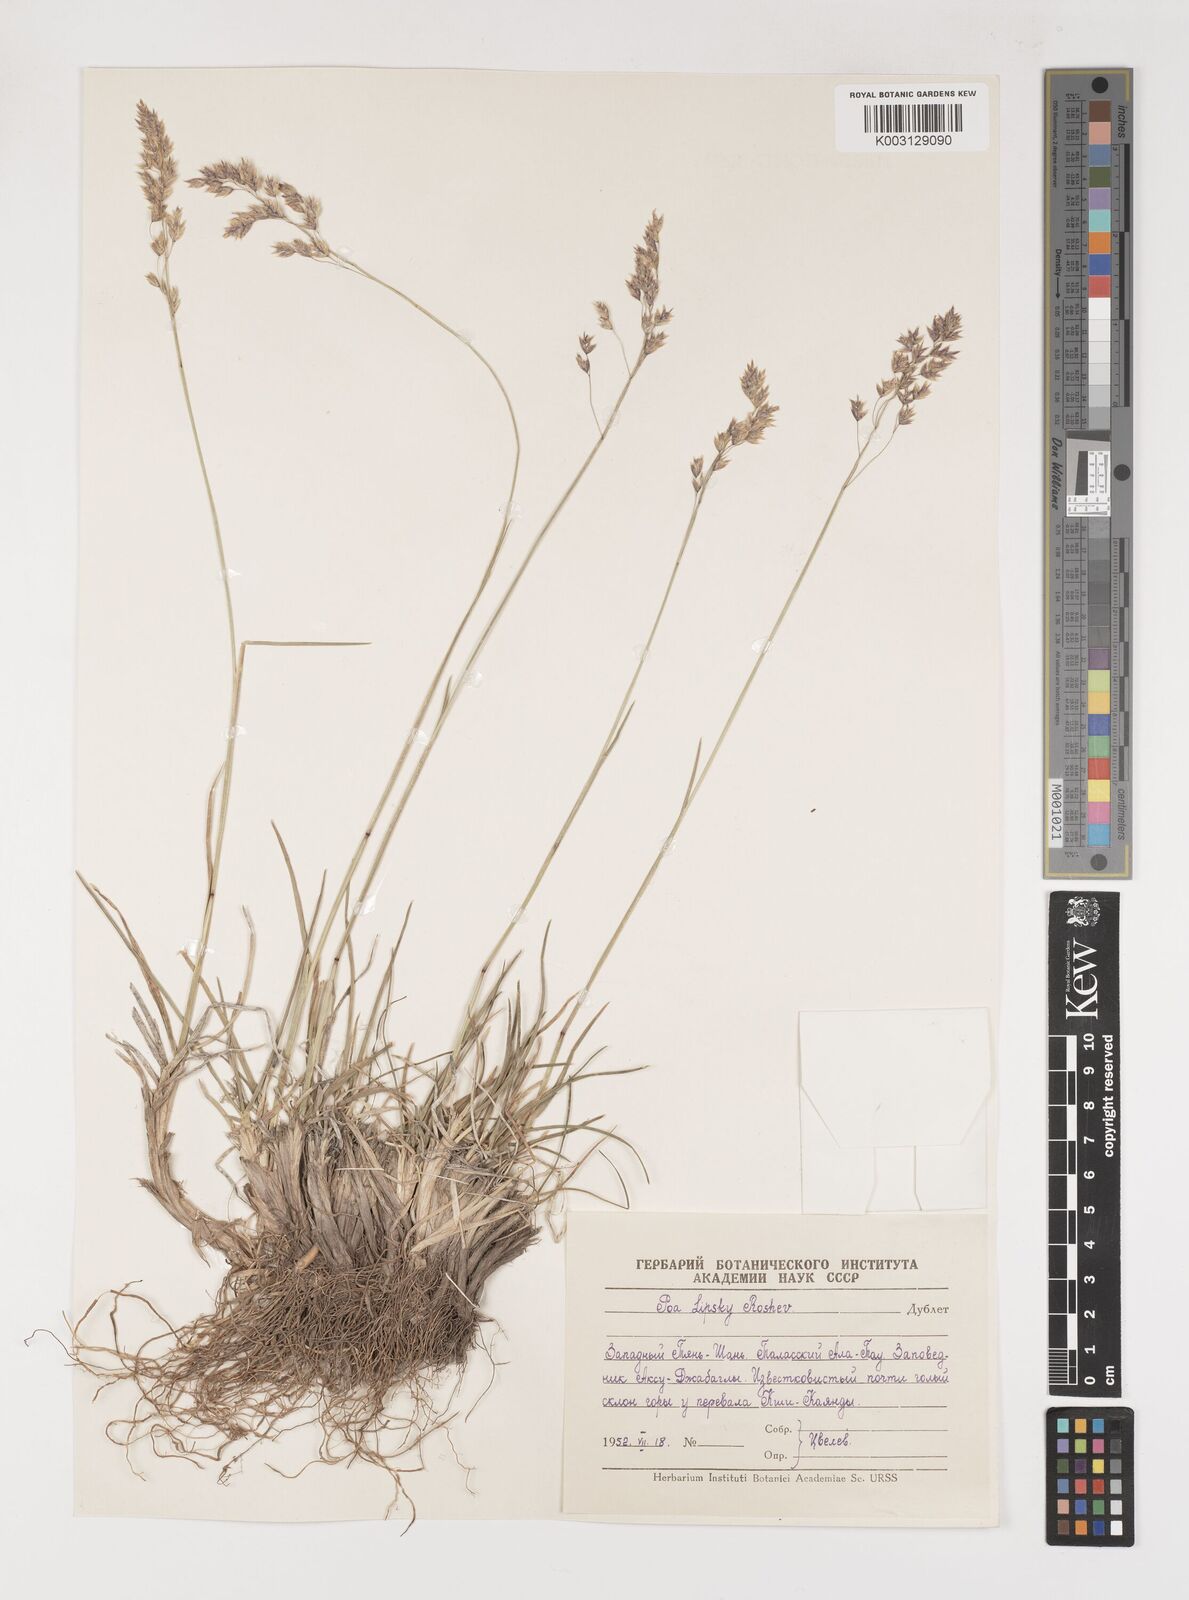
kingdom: Plantae
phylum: Tracheophyta
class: Liliopsida
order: Poales
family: Poaceae
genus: Poa
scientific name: Poa lipskyi
